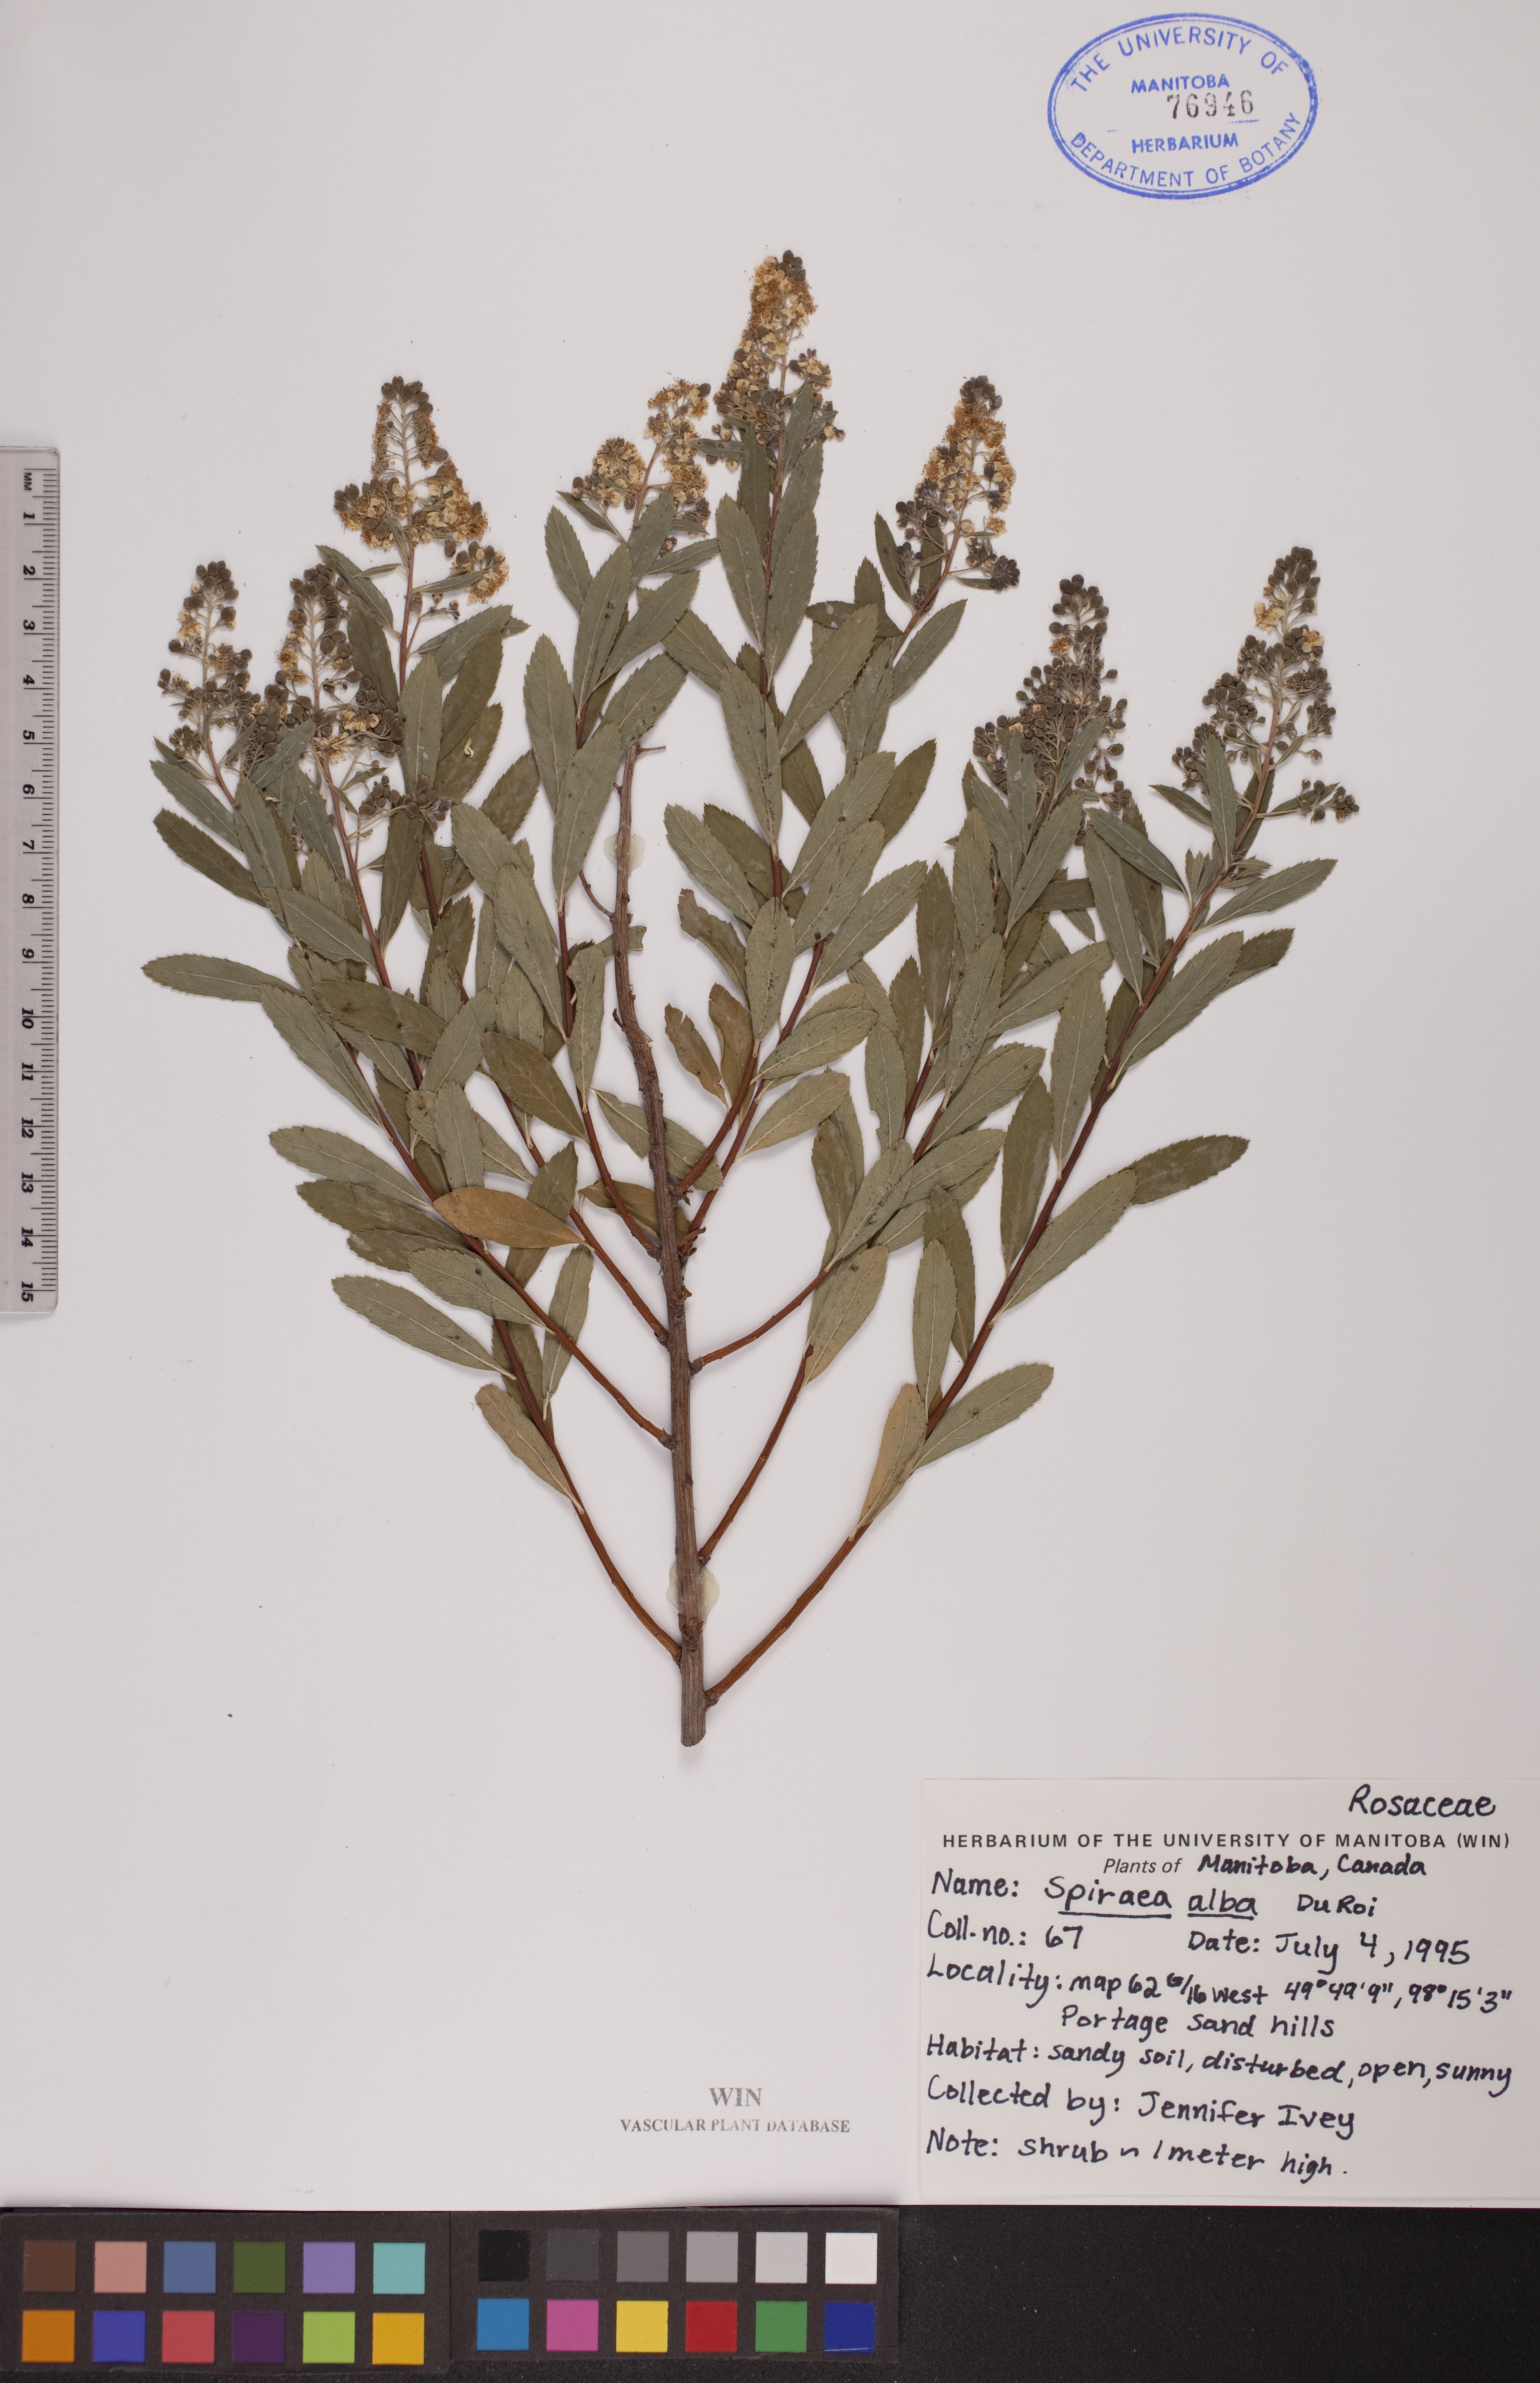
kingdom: Plantae
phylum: Tracheophyta
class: Magnoliopsida
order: Rosales
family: Rosaceae
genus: Spiraea
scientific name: Spiraea alba
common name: Pale bridewort
